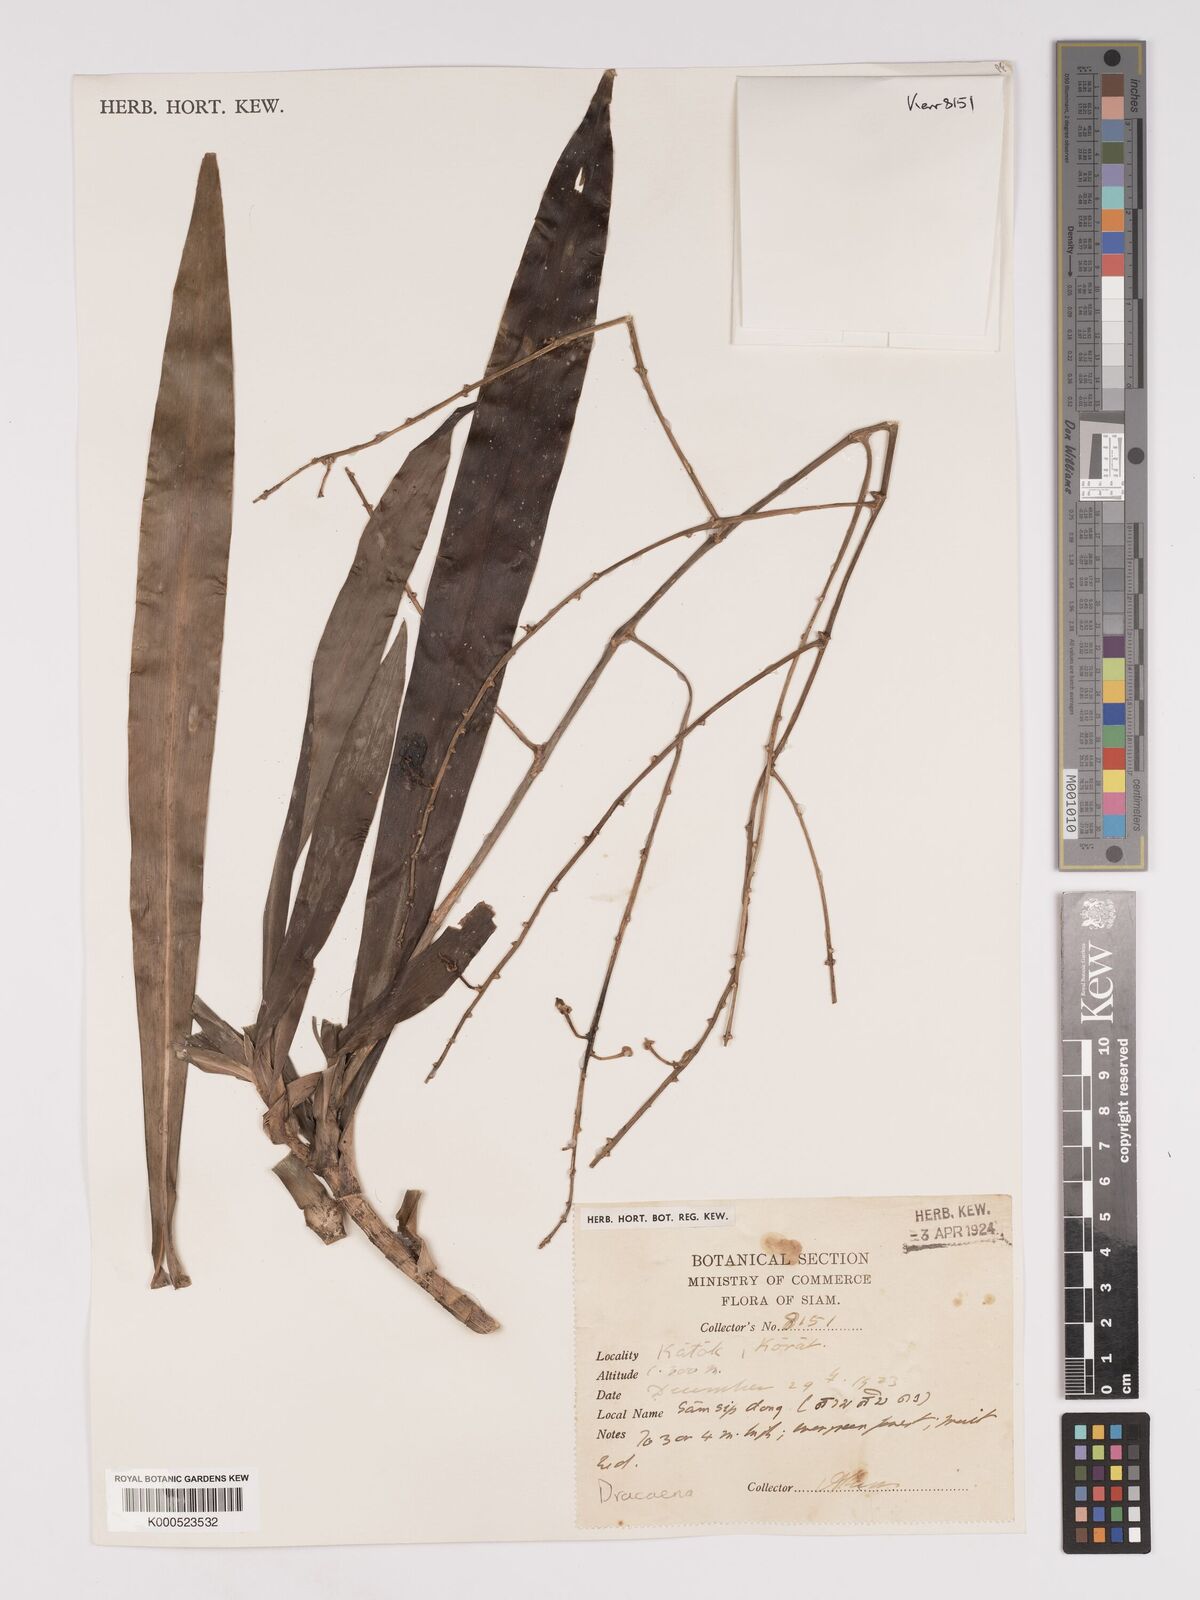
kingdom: Plantae
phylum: Tracheophyta
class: Liliopsida
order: Asparagales
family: Asparagaceae
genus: Dracaena
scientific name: Dracaena
